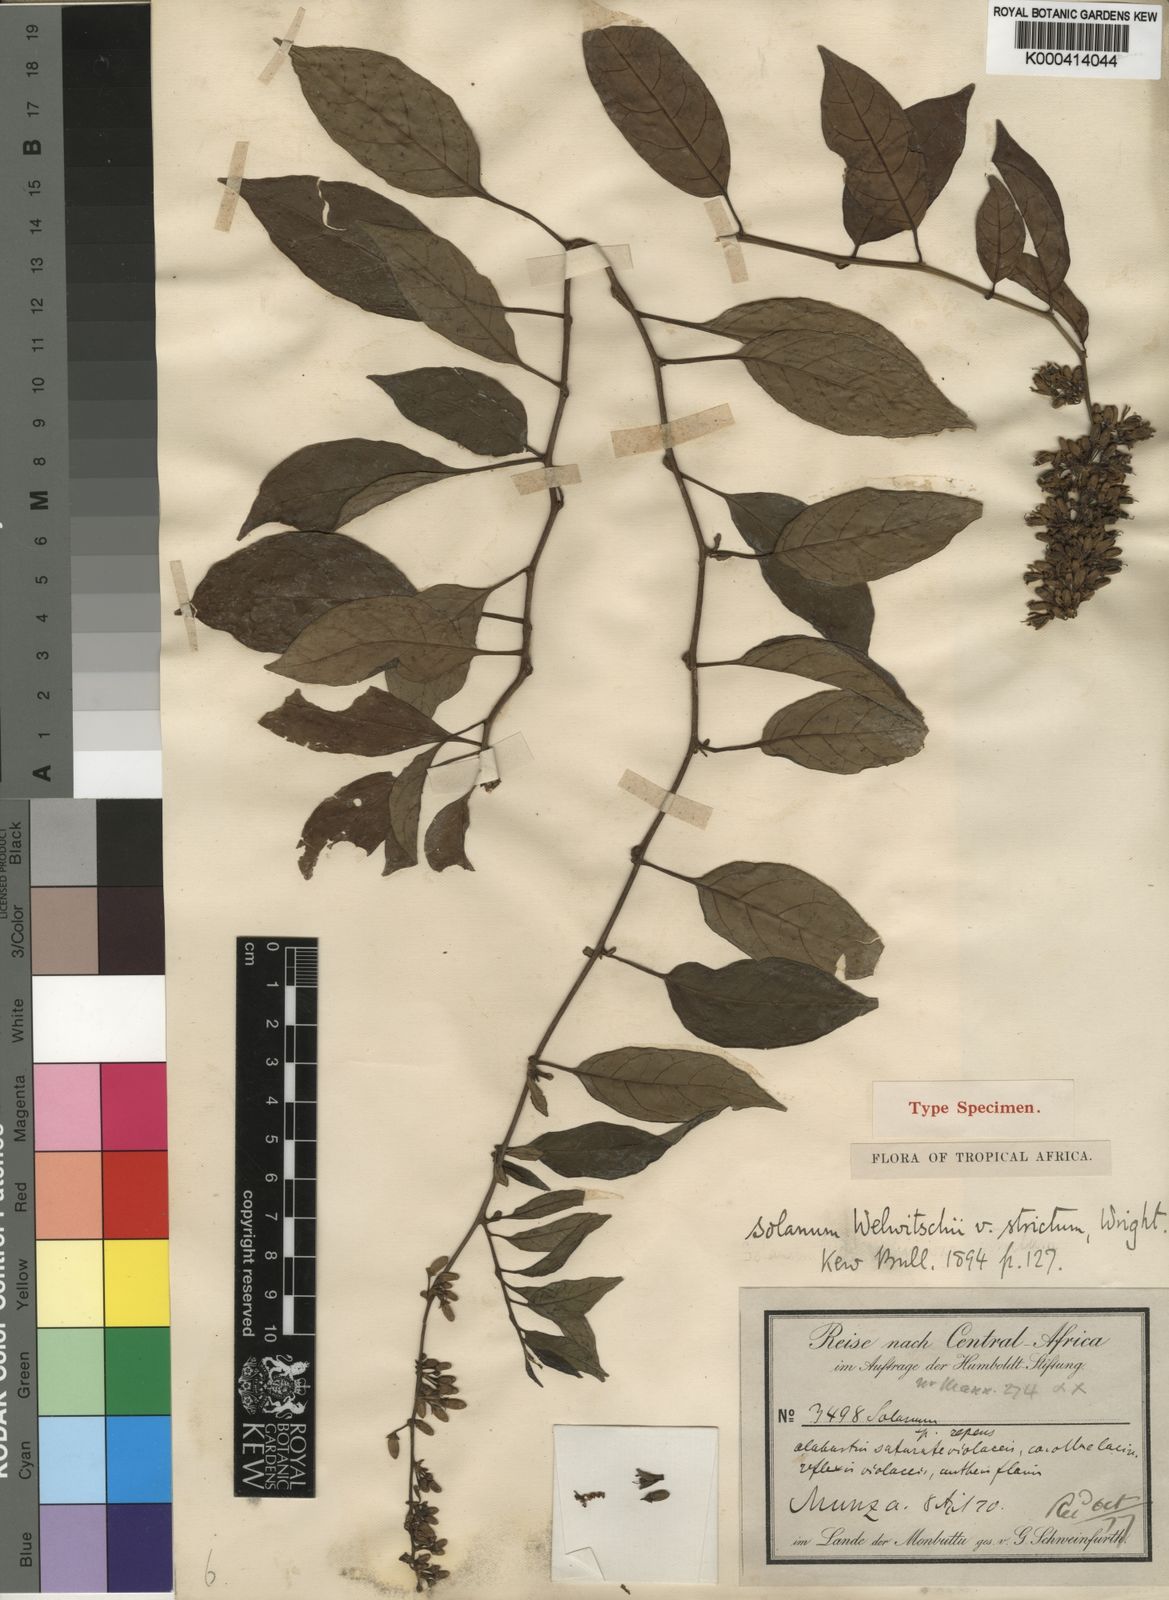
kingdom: Plantae
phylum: Tracheophyta
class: Magnoliopsida
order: Solanales
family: Solanaceae
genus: Solanum
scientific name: Solanum terminale
